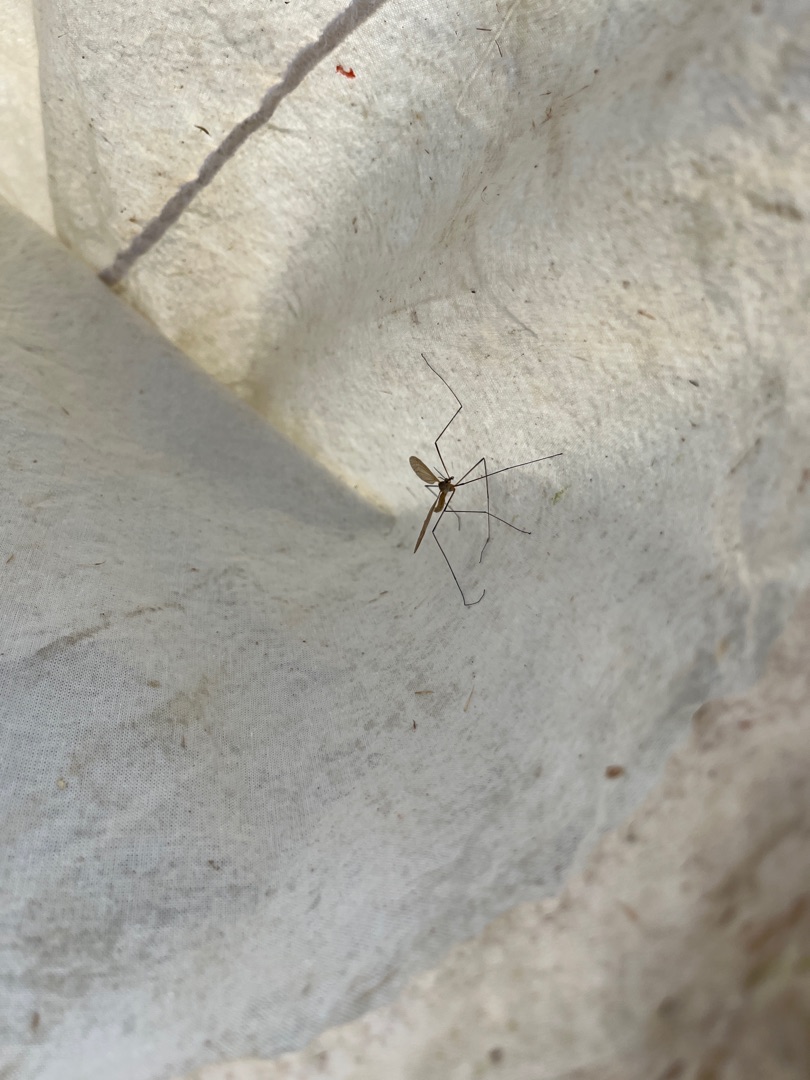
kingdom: Animalia
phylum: Arthropoda
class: Insecta
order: Diptera
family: Tipulidae
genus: Tipula
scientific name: Tipula
